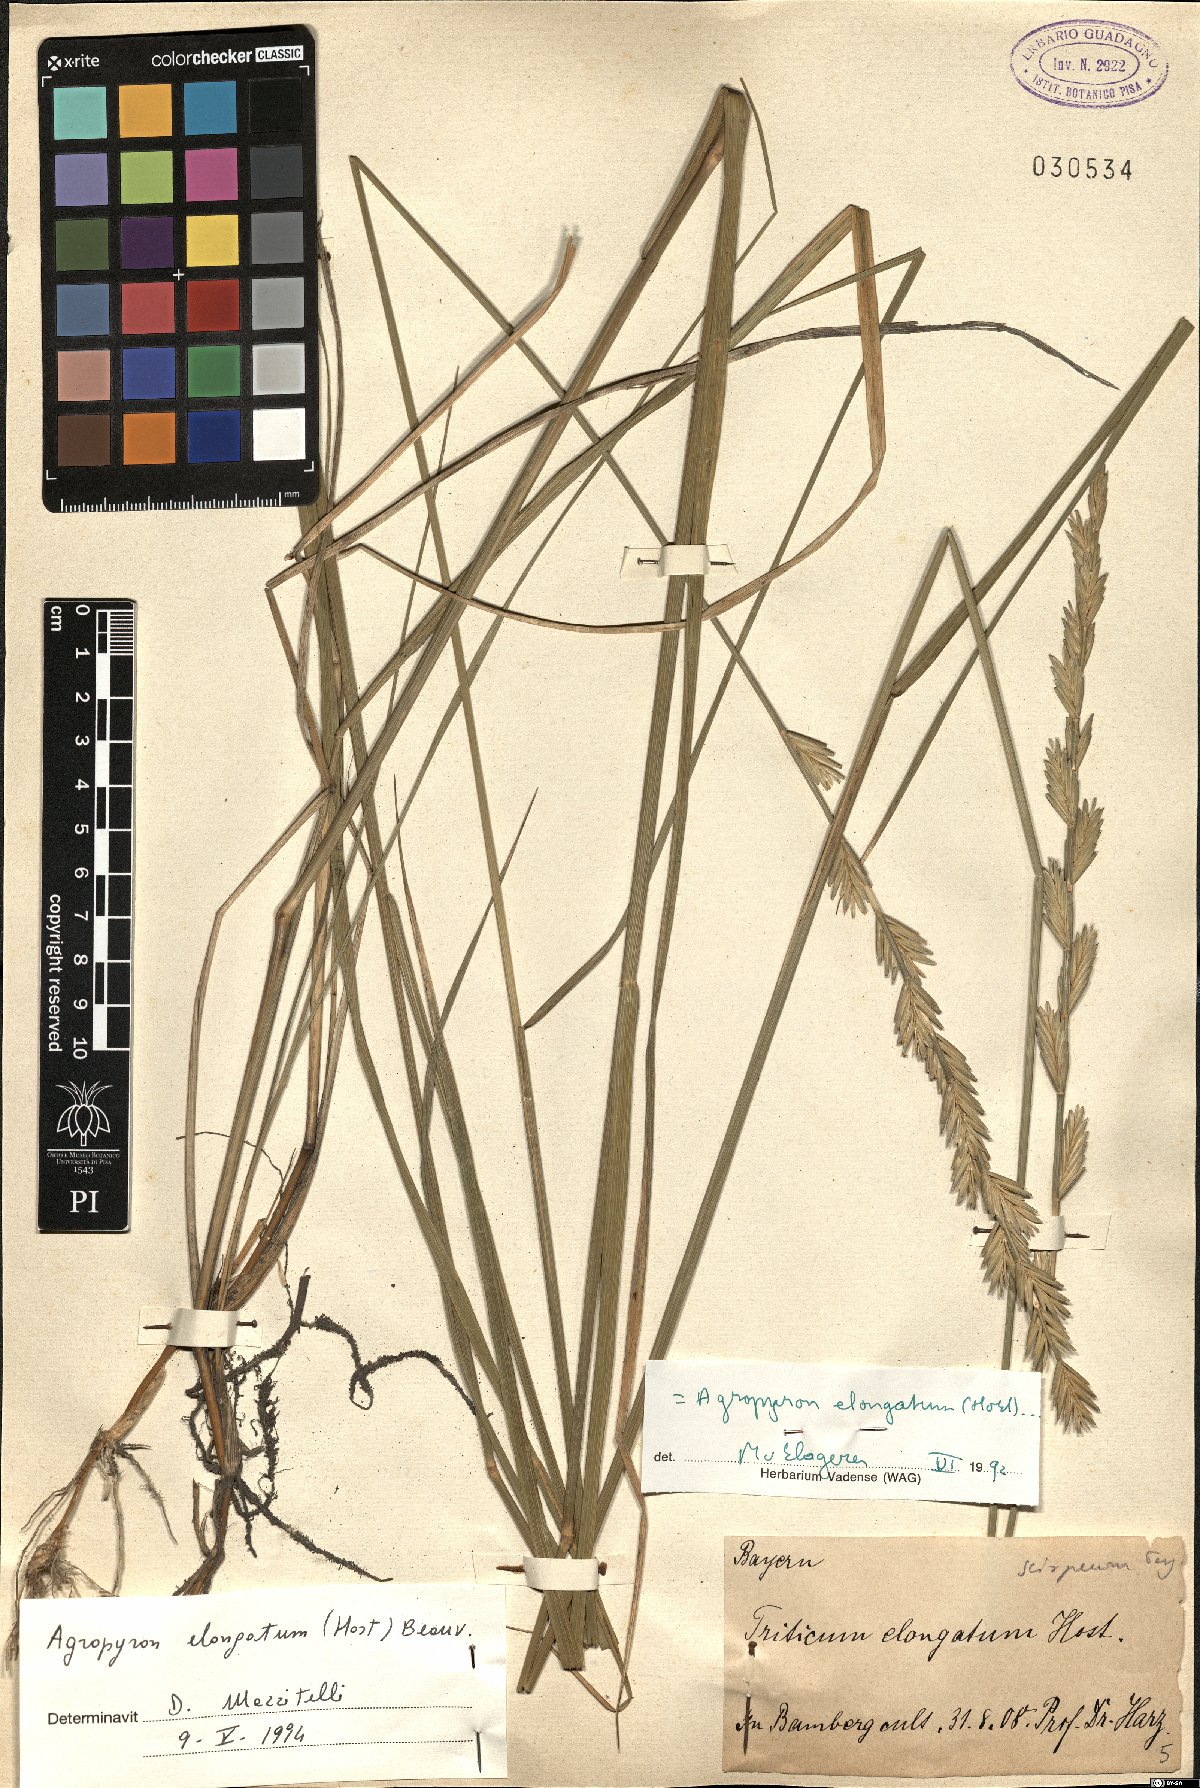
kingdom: Plantae
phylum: Tracheophyta
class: Liliopsida
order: Poales
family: Poaceae
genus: Thinopyrum
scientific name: Thinopyrum elongatum
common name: Tall wheatgrass
